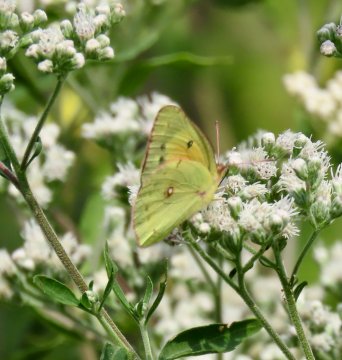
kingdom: Animalia
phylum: Arthropoda
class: Insecta
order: Lepidoptera
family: Pieridae
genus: Colias
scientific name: Colias eurytheme
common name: Orange Sulphur
